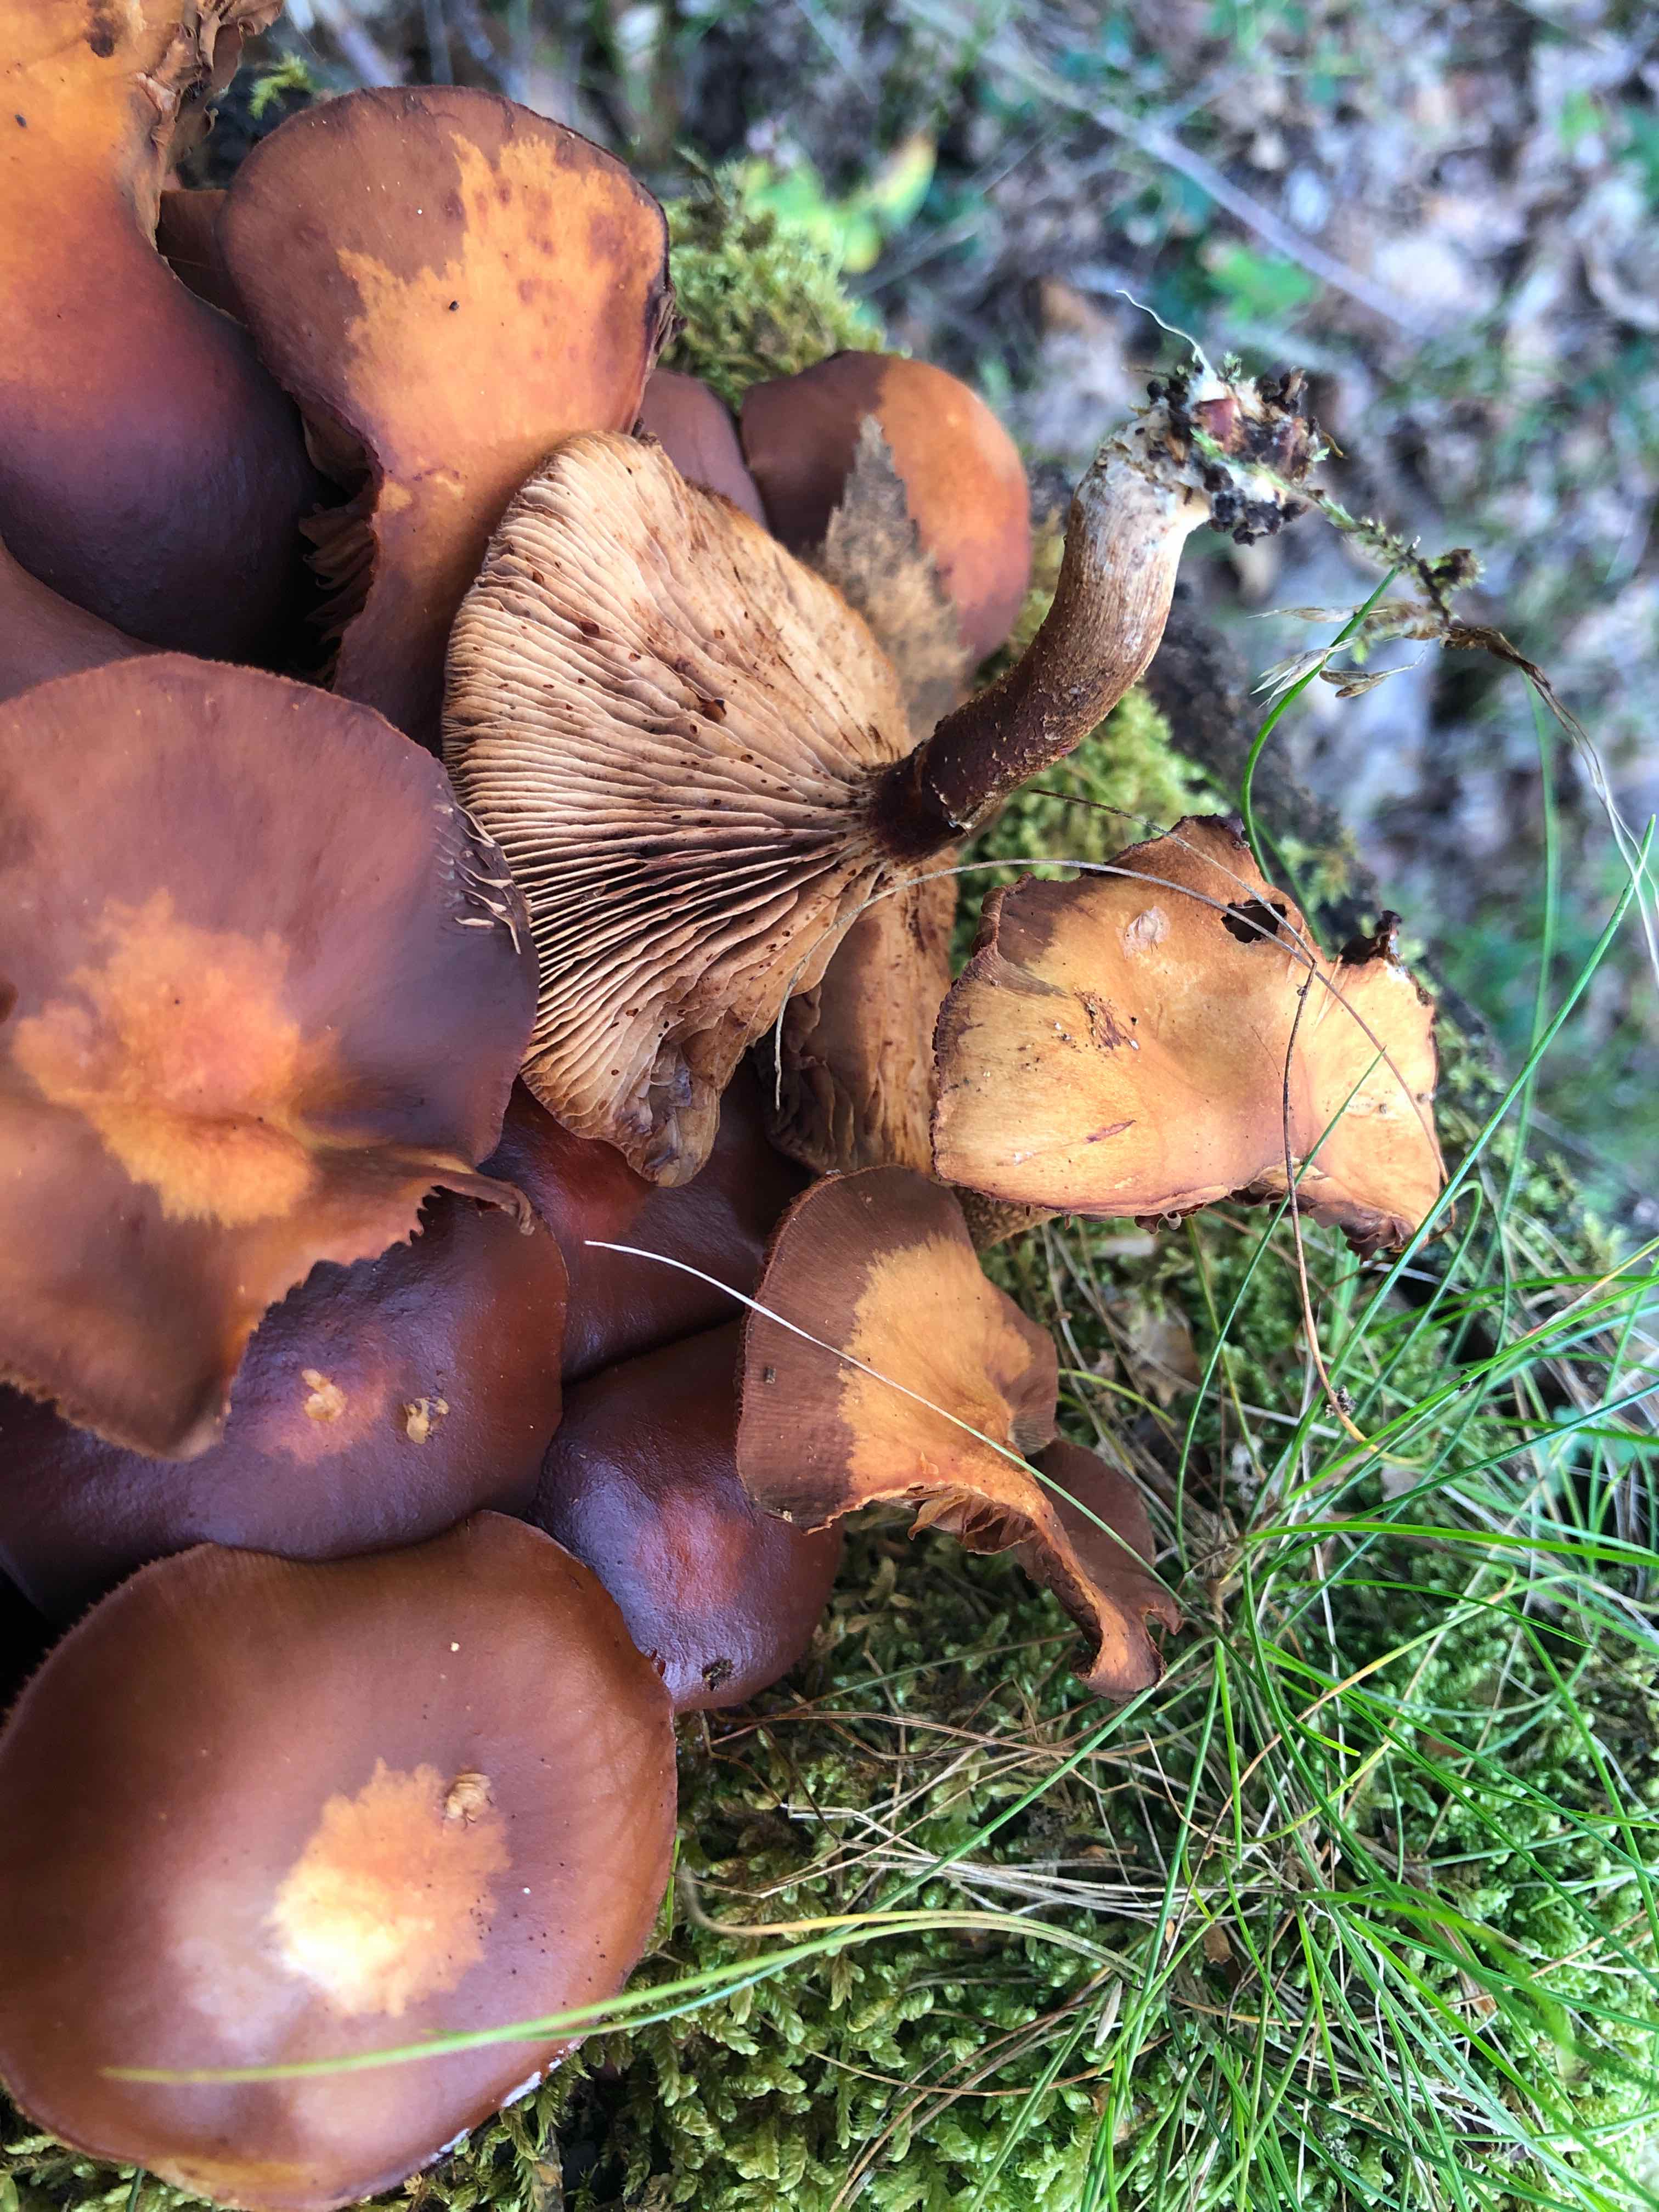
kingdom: Fungi
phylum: Basidiomycota
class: Agaricomycetes
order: Agaricales
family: Strophariaceae
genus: Kuehneromyces
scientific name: Kuehneromyces mutabilis
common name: foranderlig skælhat
